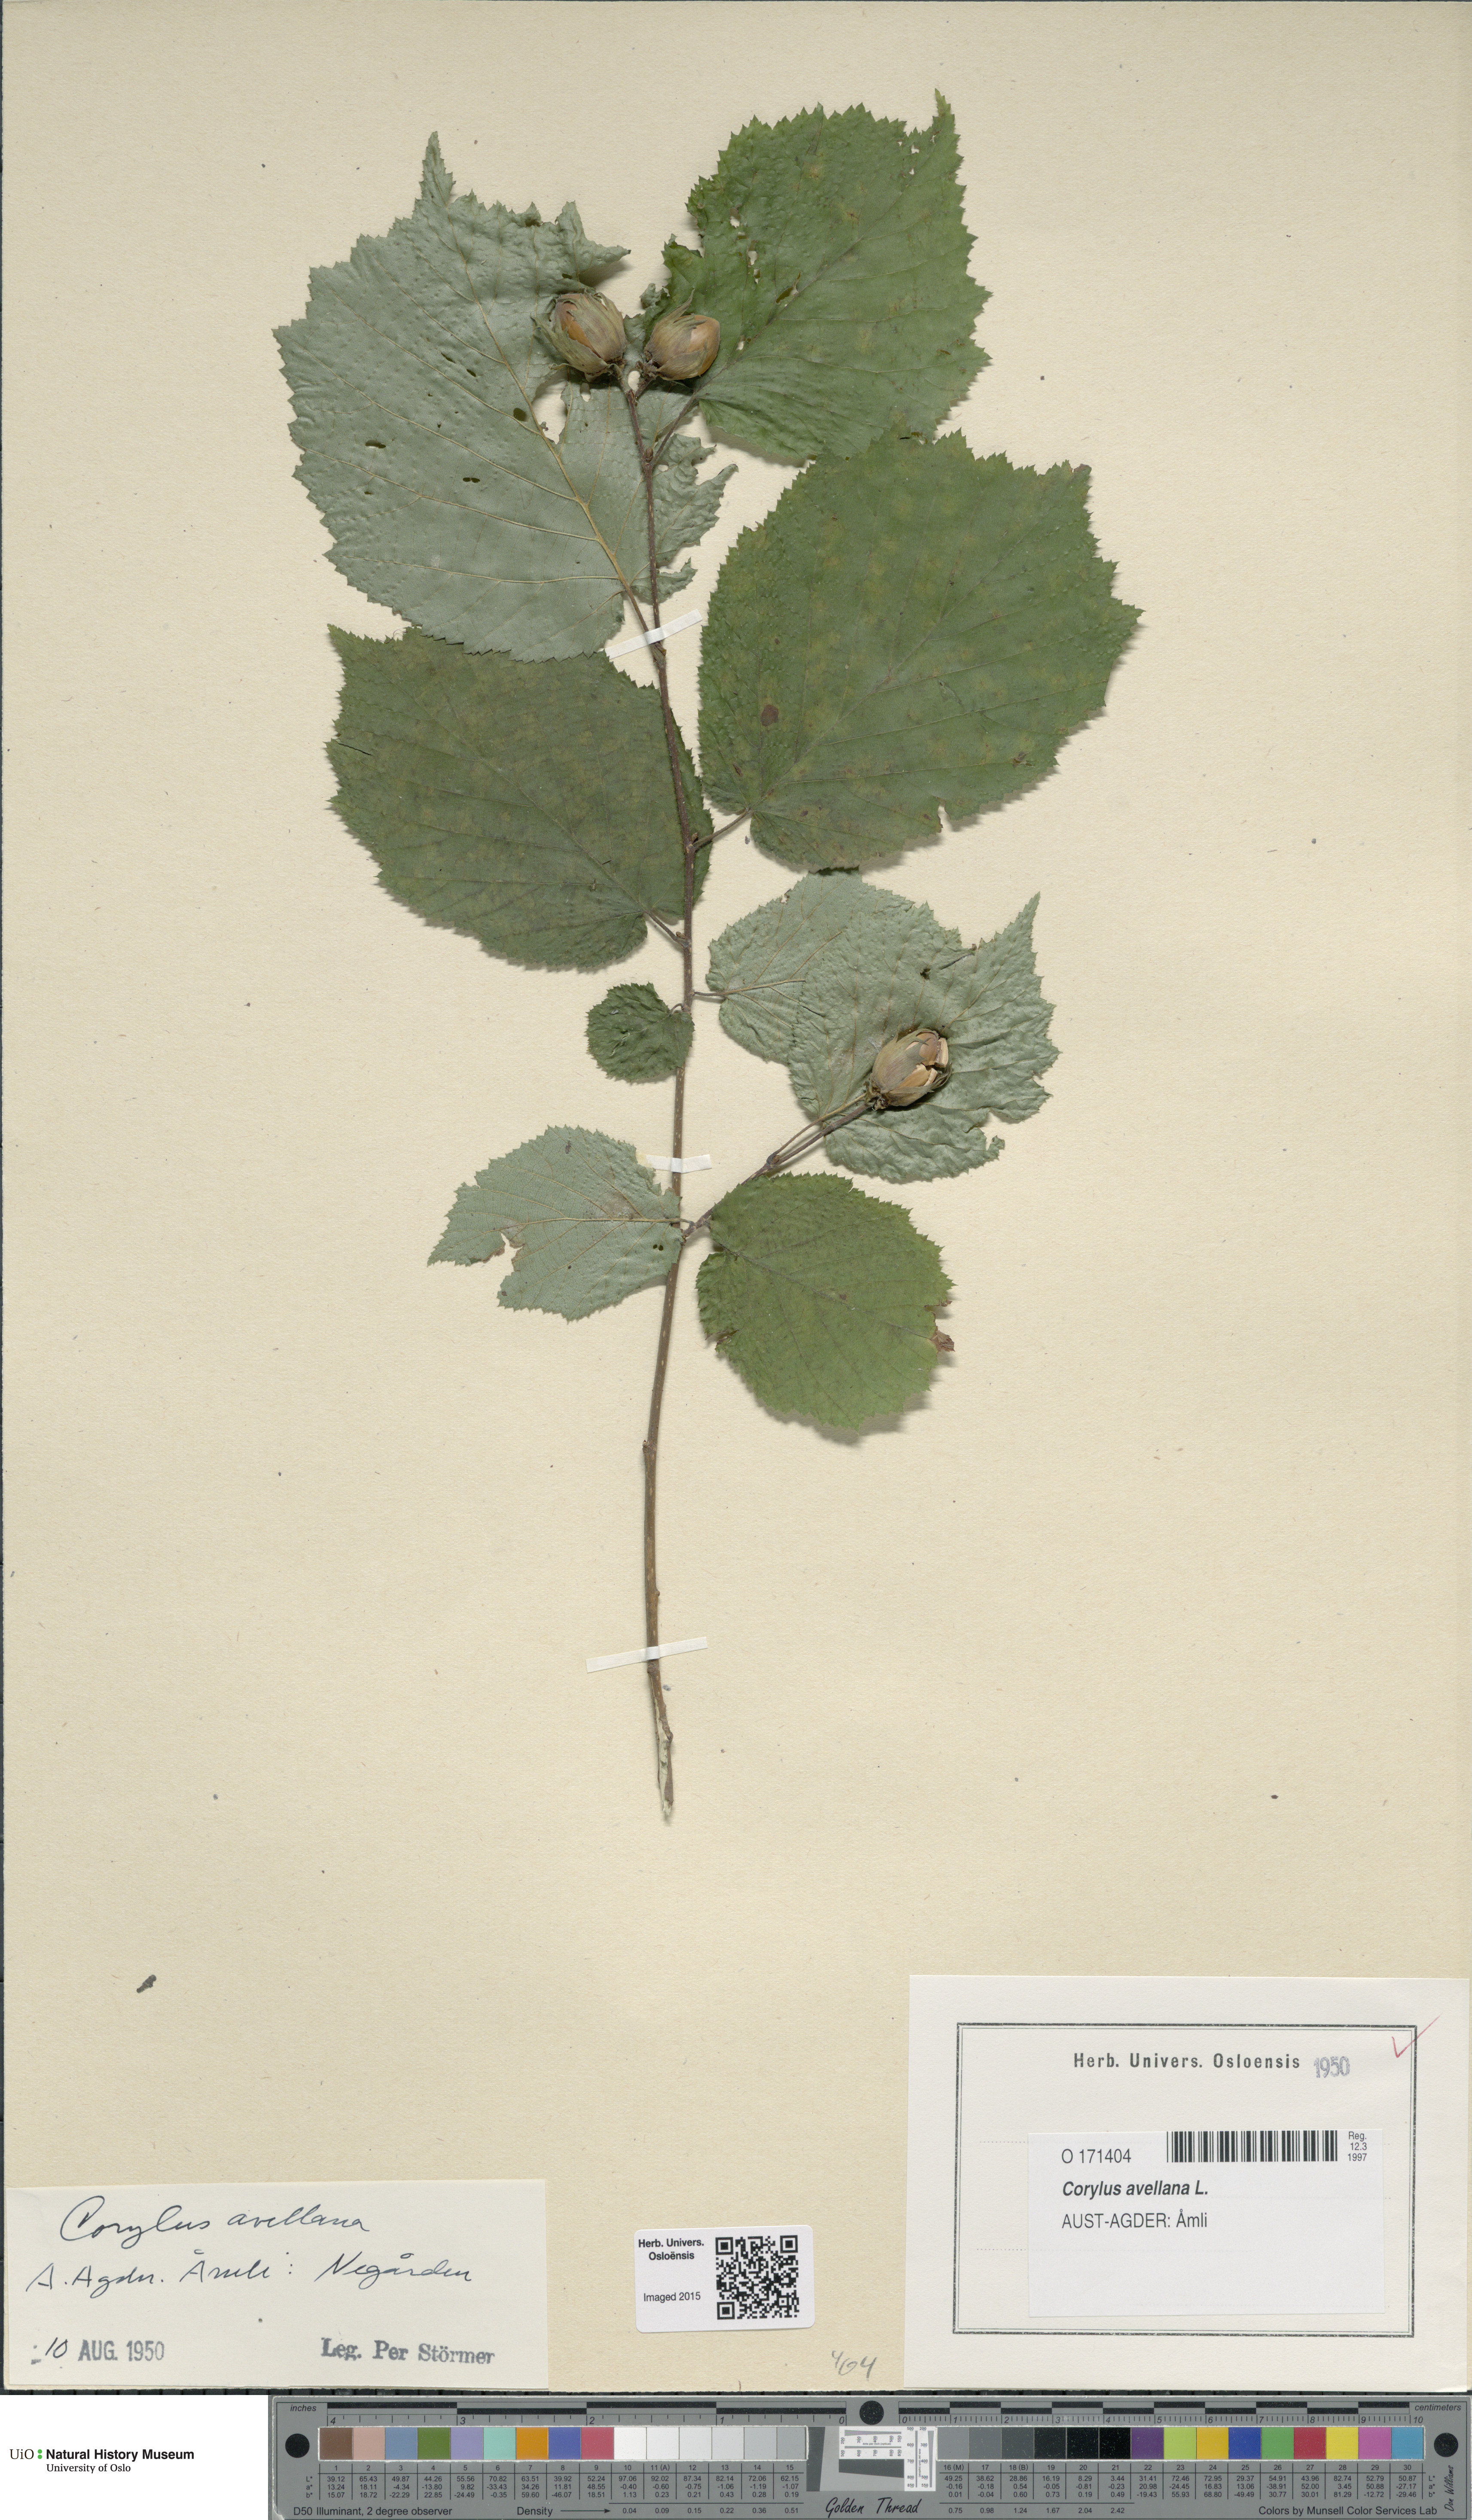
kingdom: Plantae
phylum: Tracheophyta
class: Magnoliopsida
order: Fagales
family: Betulaceae
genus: Corylus
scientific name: Corylus avellana
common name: European hazel
